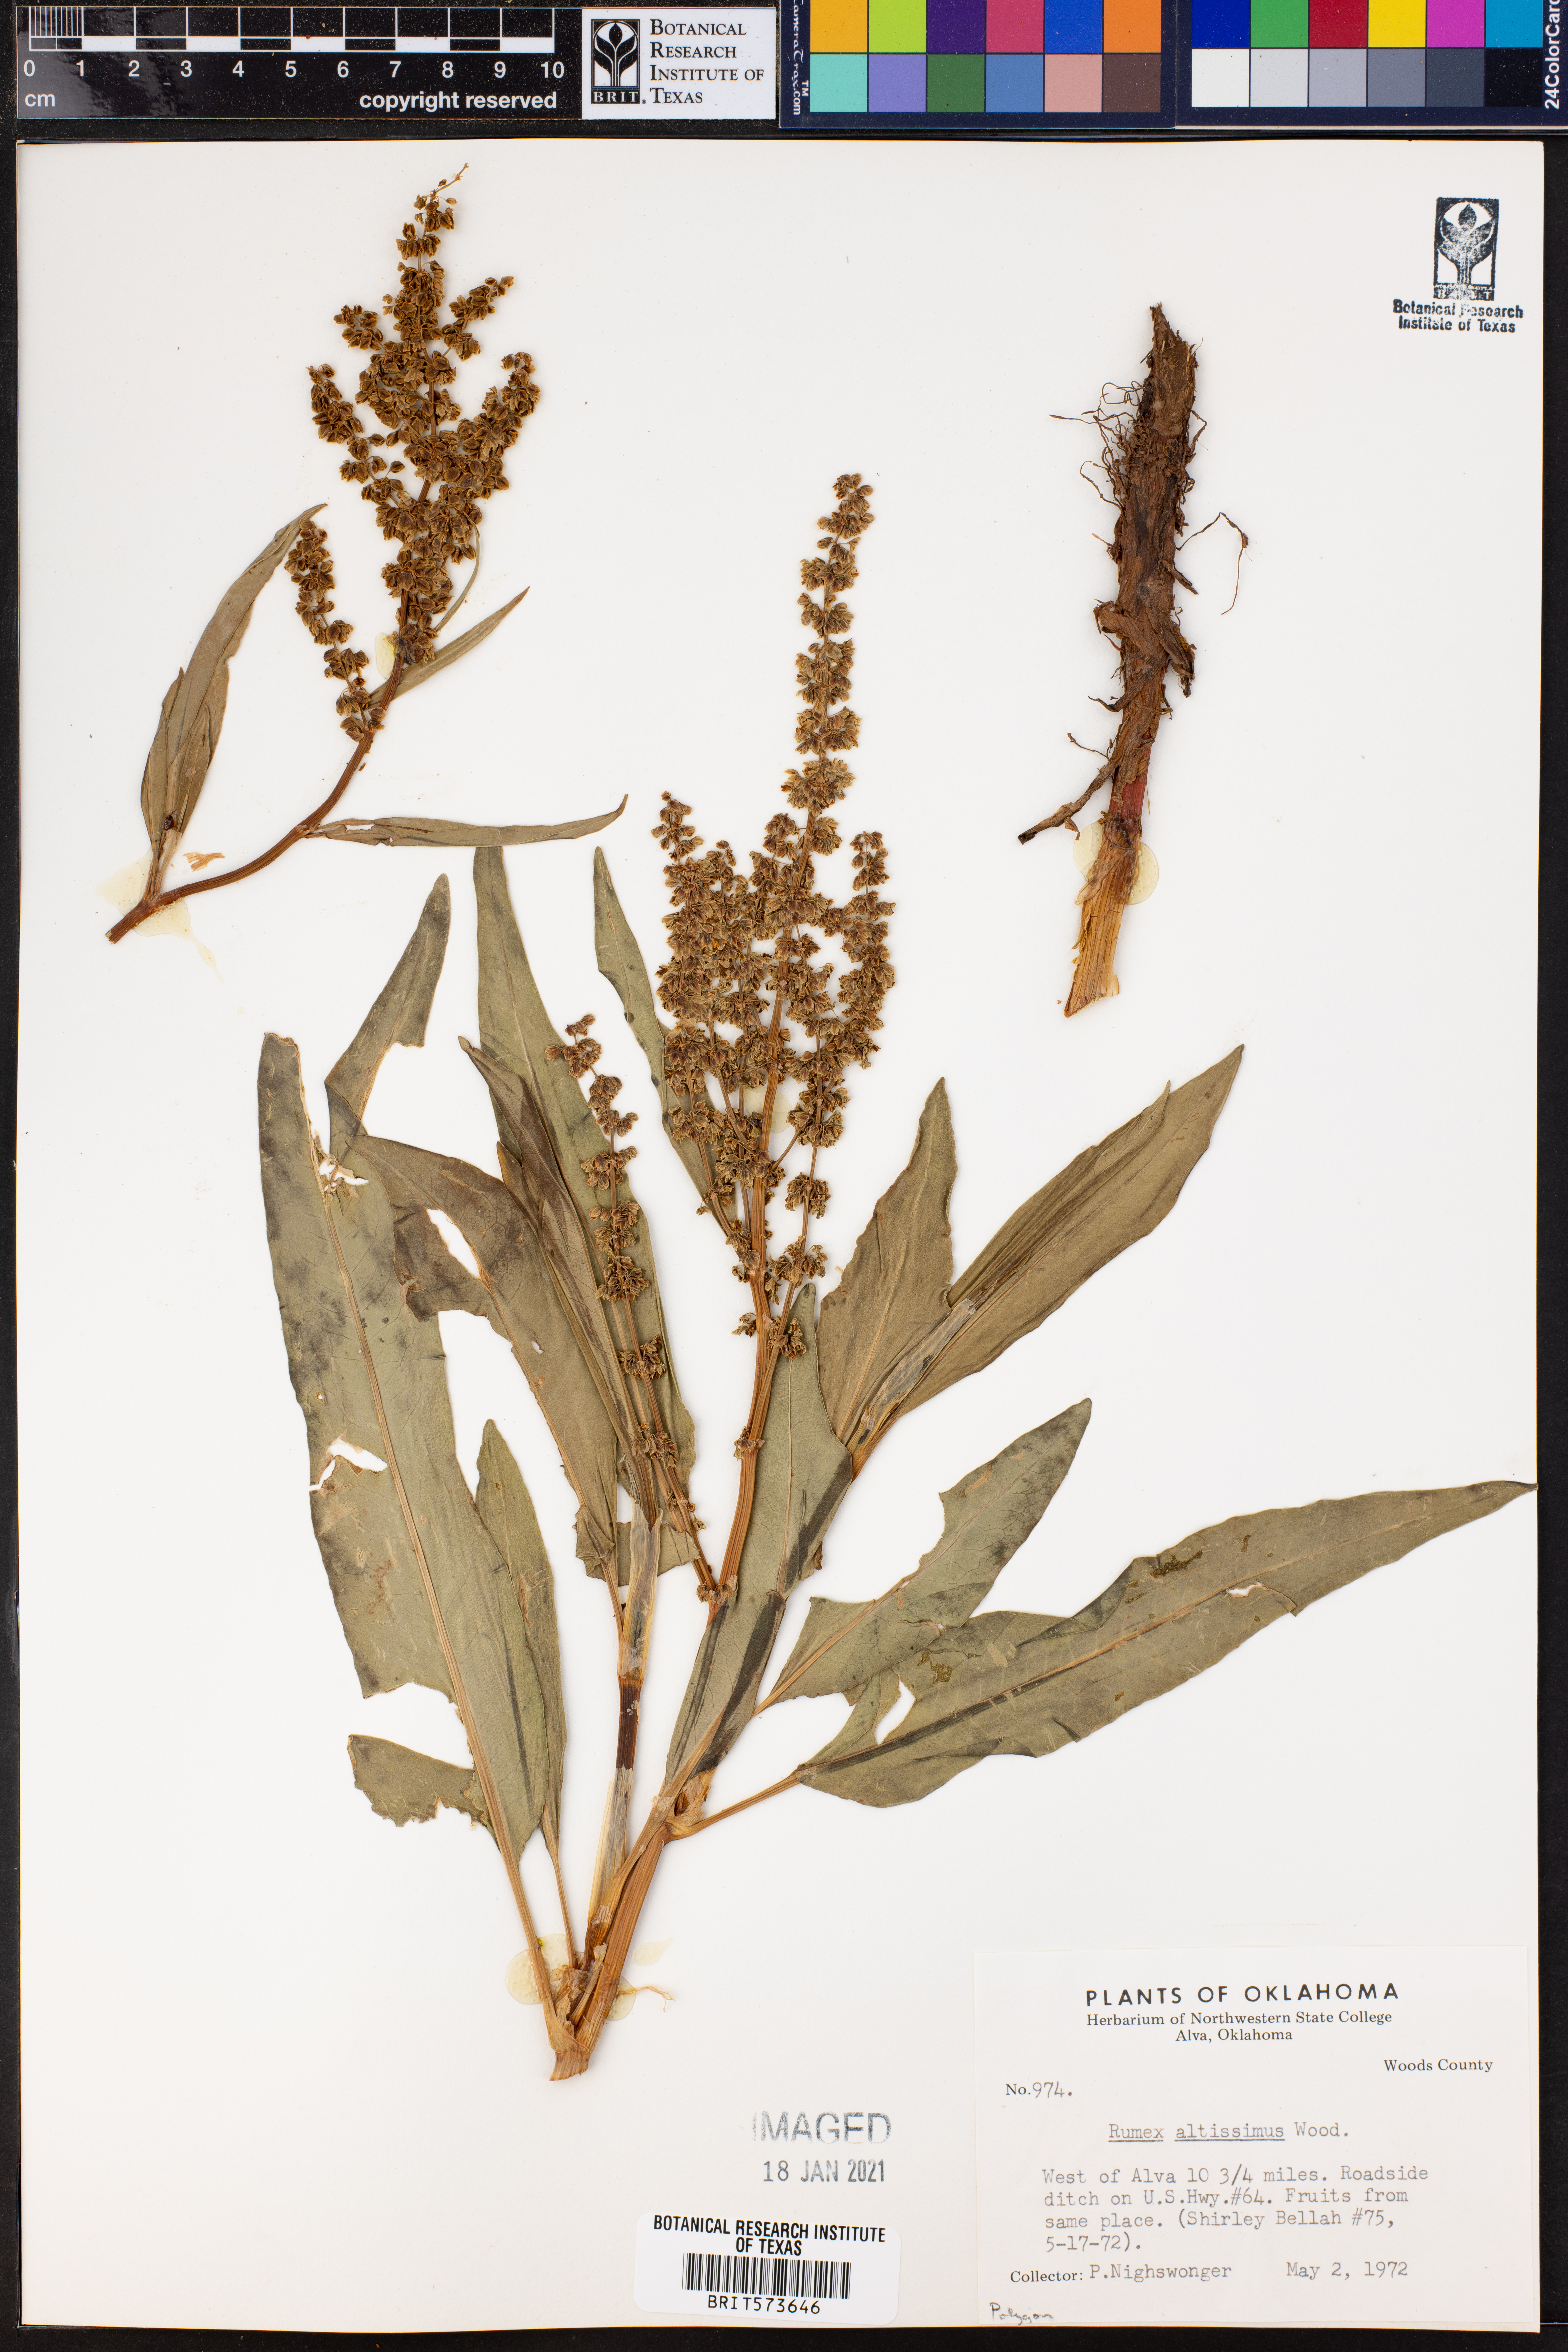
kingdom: Plantae
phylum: Tracheophyta
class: Magnoliopsida
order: Caryophyllales
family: Polygonaceae
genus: Rumex
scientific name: Rumex altissimus
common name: Smooth dock
